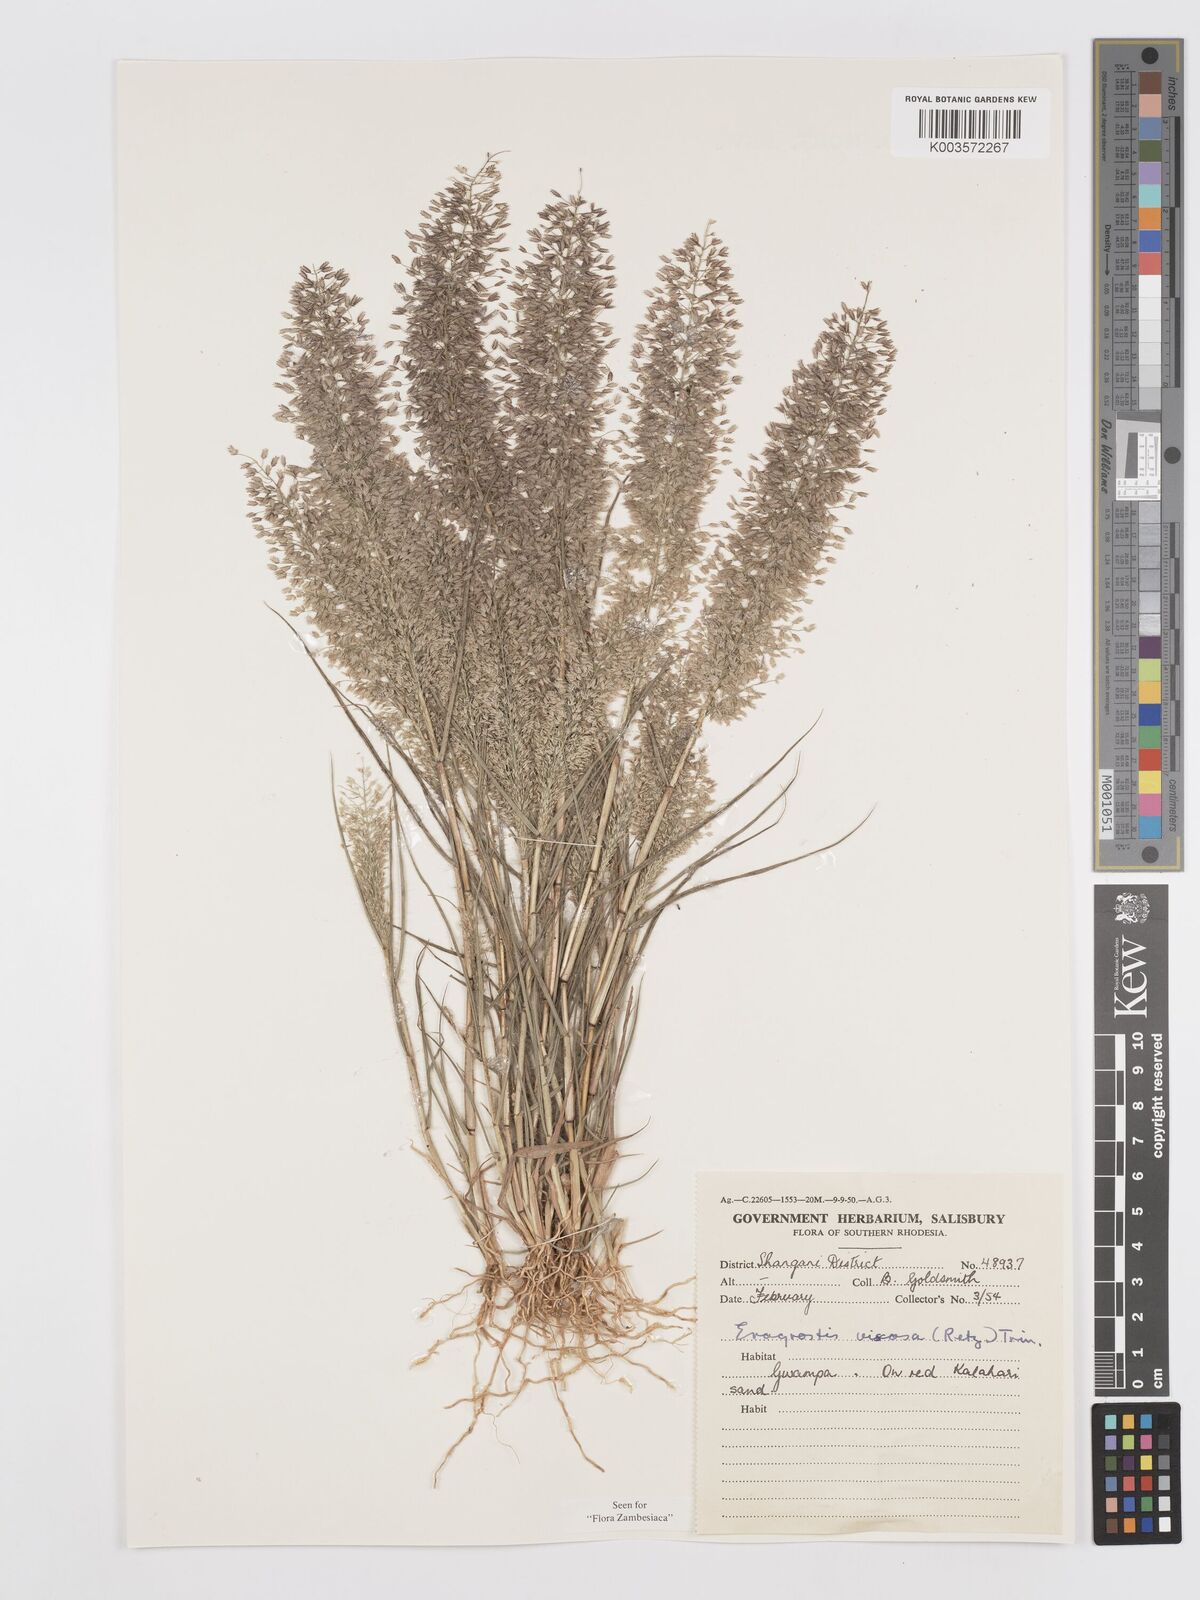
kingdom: Plantae
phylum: Tracheophyta
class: Liliopsida
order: Poales
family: Poaceae
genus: Eragrostis
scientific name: Eragrostis
